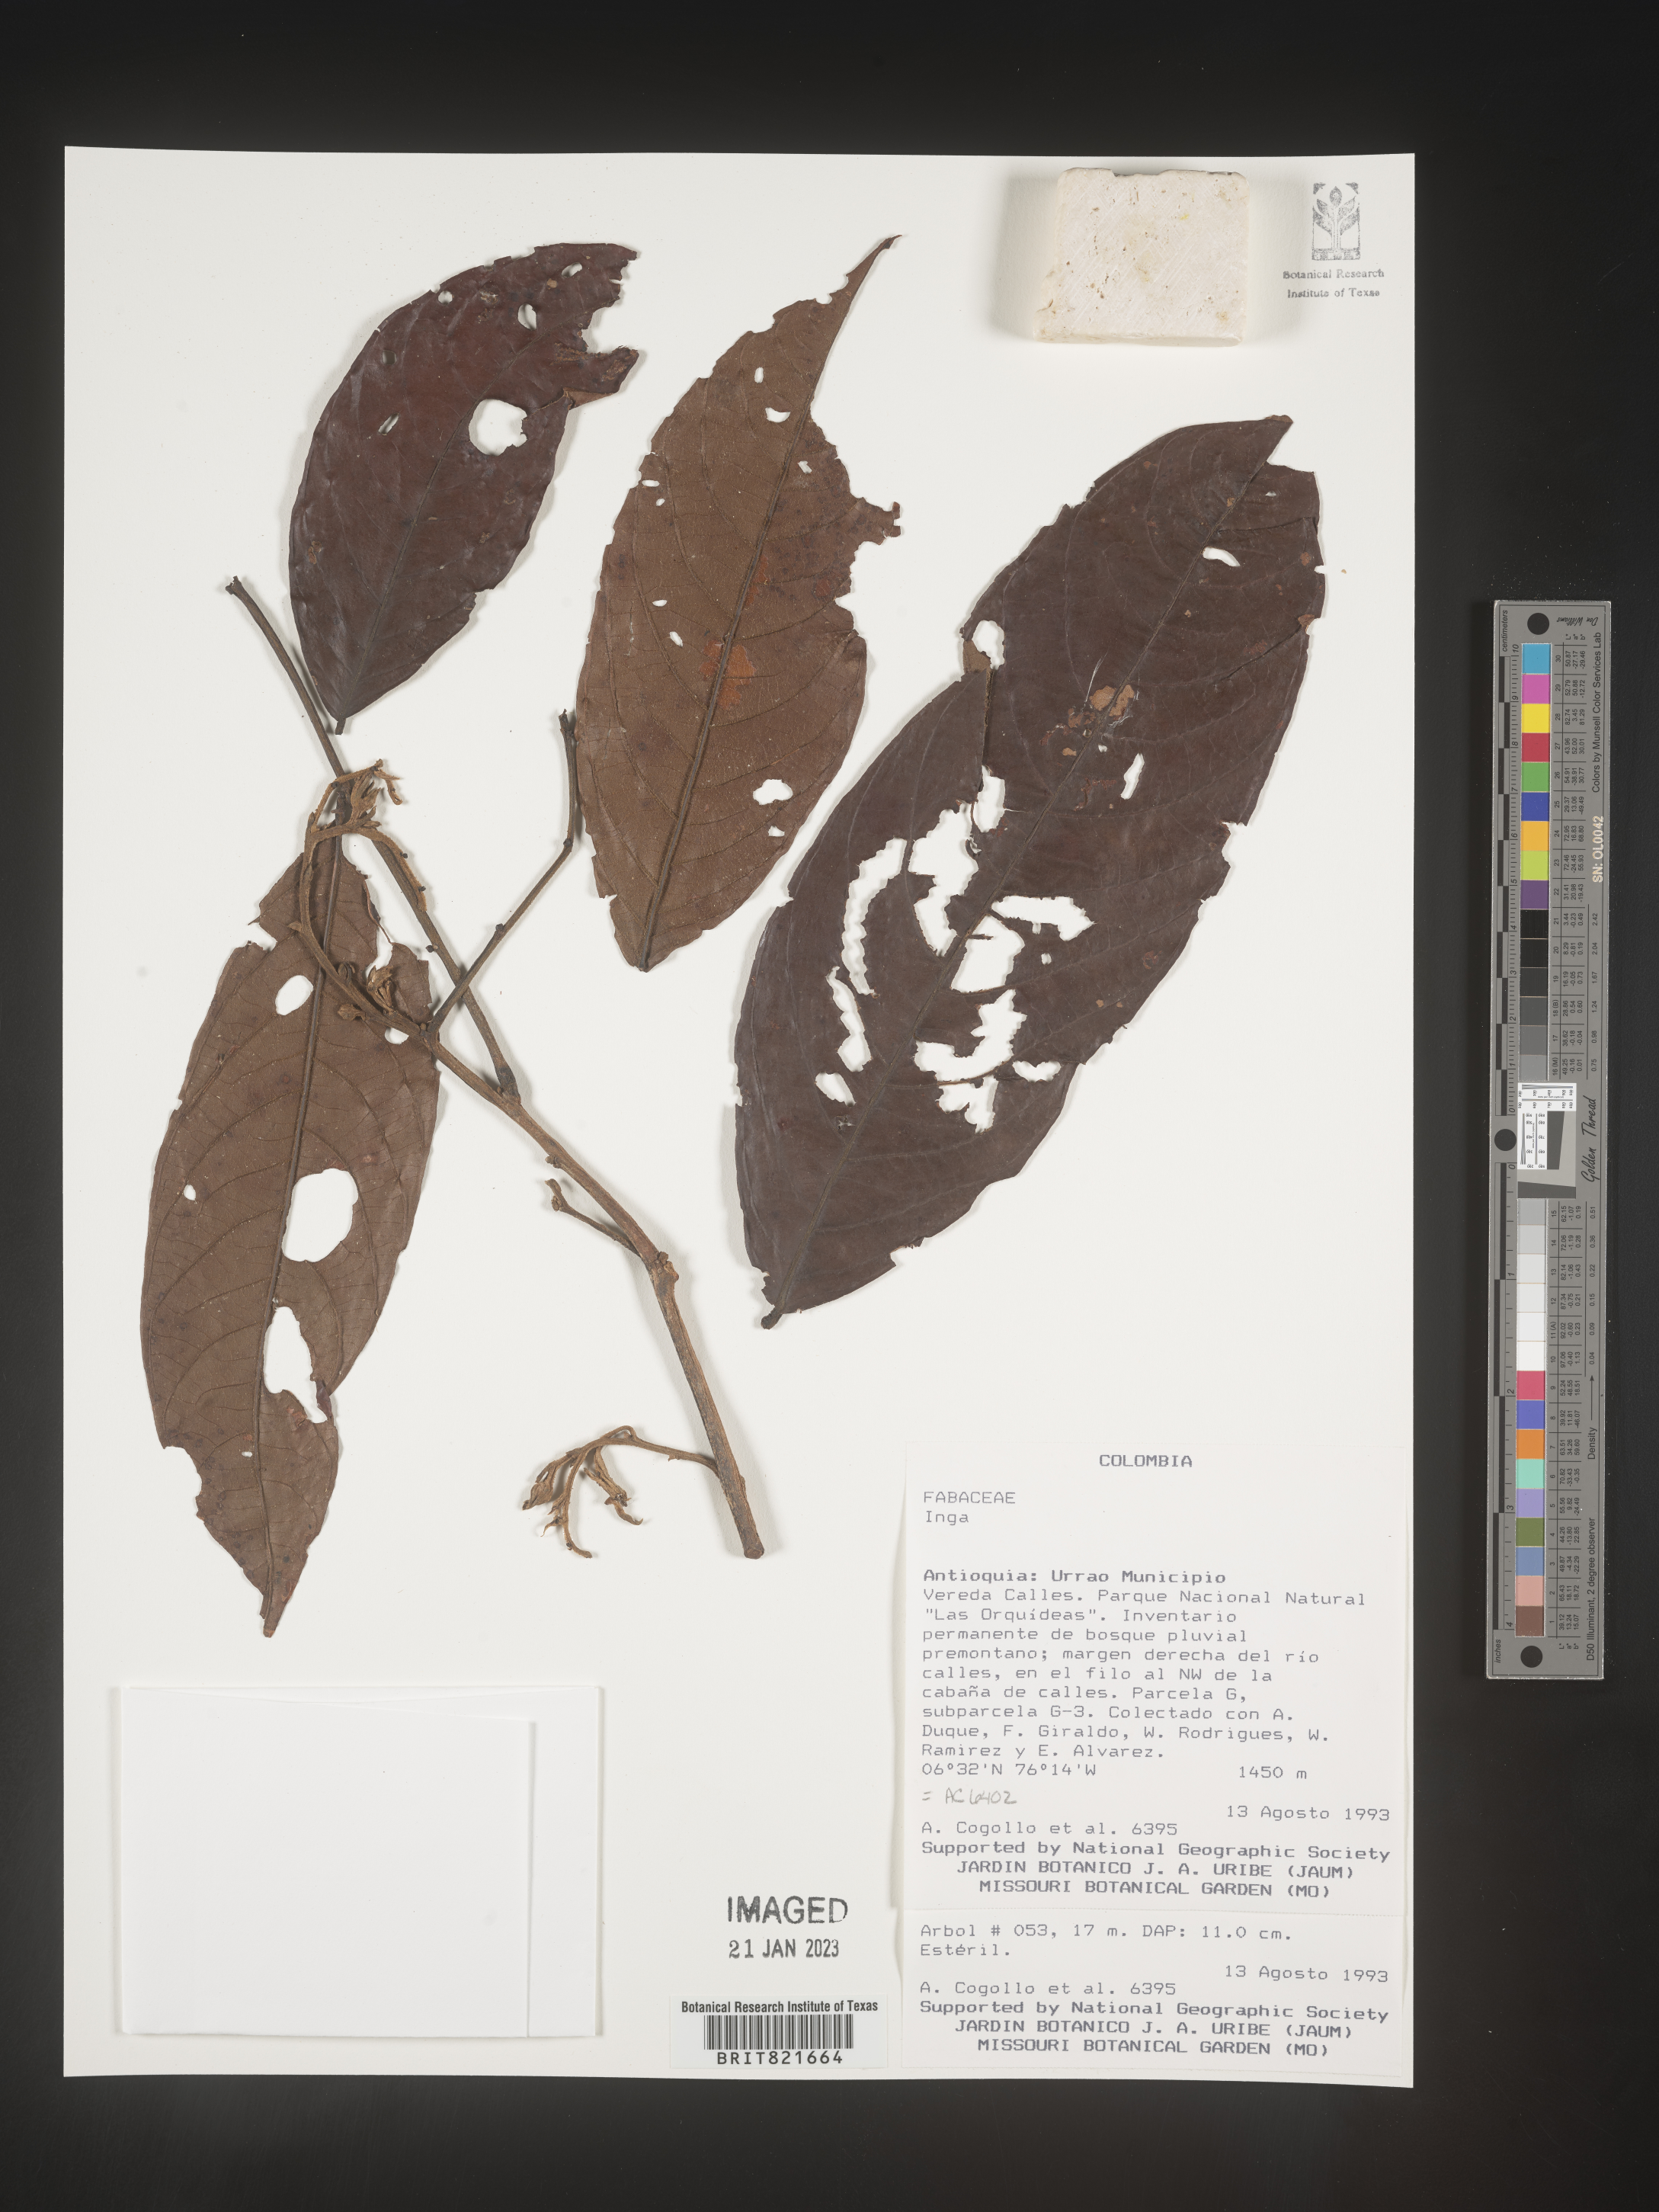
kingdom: Plantae
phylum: Tracheophyta
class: Magnoliopsida
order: Fabales
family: Fabaceae
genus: Inga
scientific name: Inga
